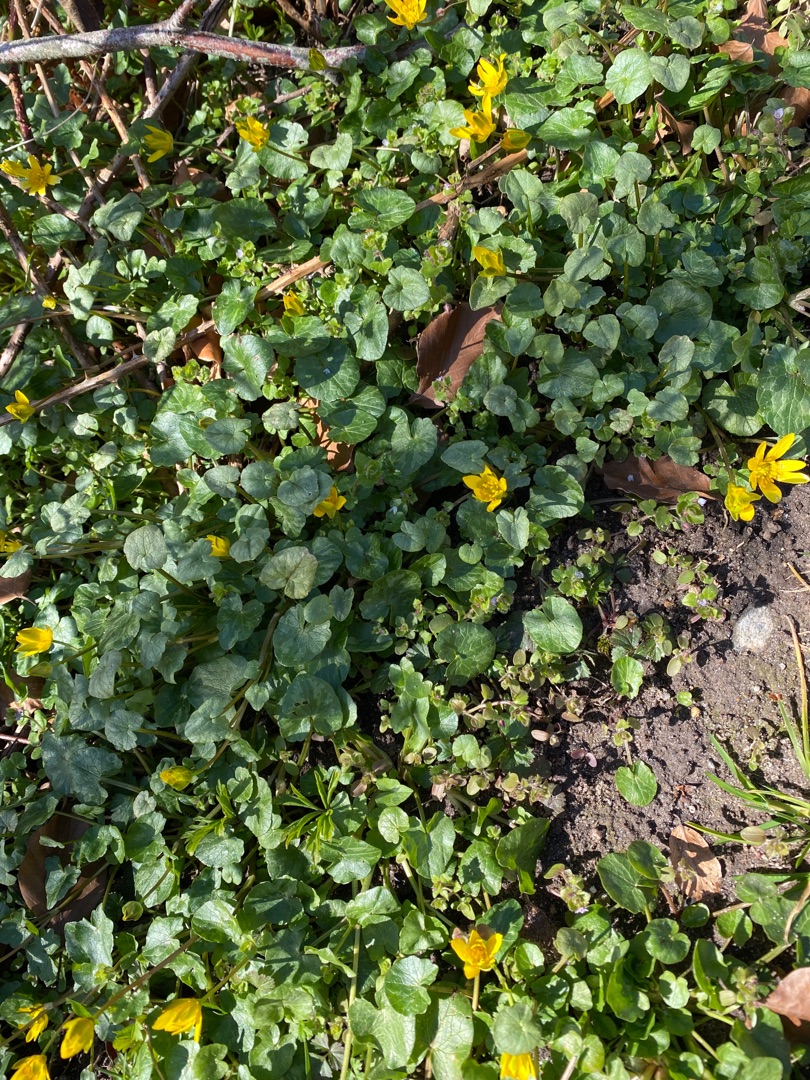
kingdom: Plantae
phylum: Tracheophyta
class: Magnoliopsida
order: Ranunculales
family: Ranunculaceae
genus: Ficaria
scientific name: Ficaria verna
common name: Vorterod
